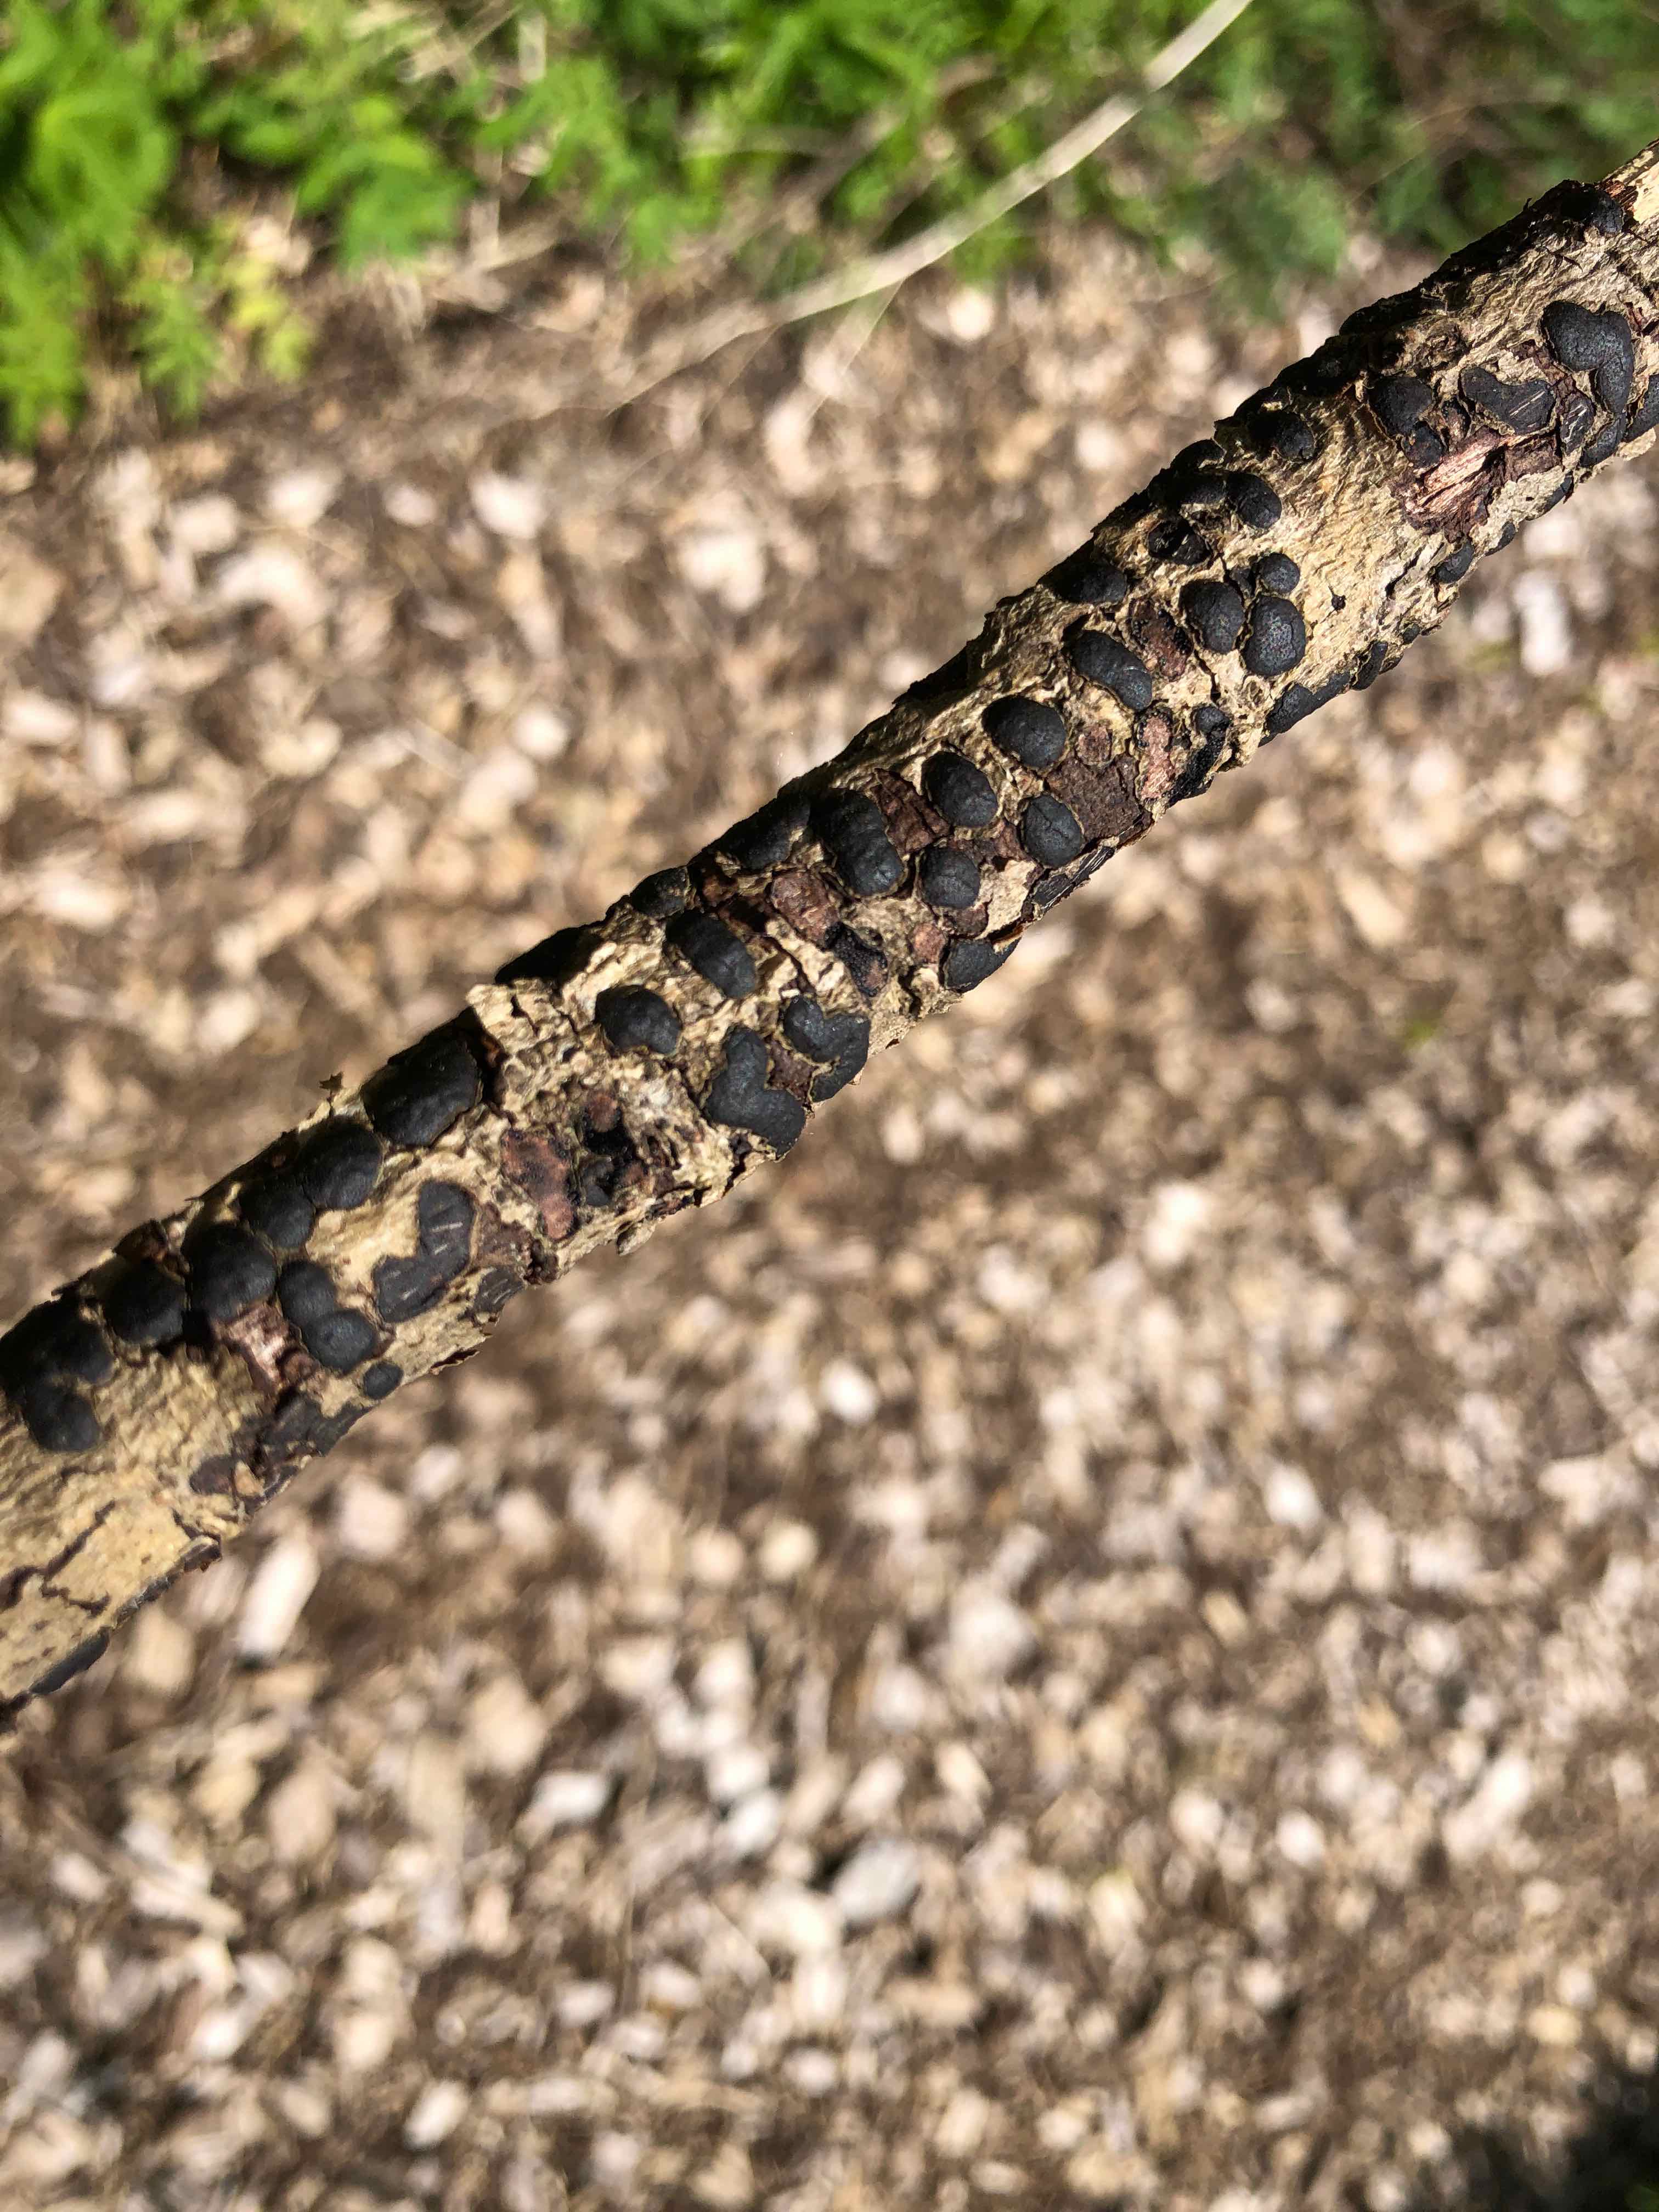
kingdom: Fungi
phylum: Ascomycota
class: Sordariomycetes
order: Xylariales
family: Diatrypaceae
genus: Diatrype
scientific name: Diatrype bullata
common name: pile-kulskorpe
